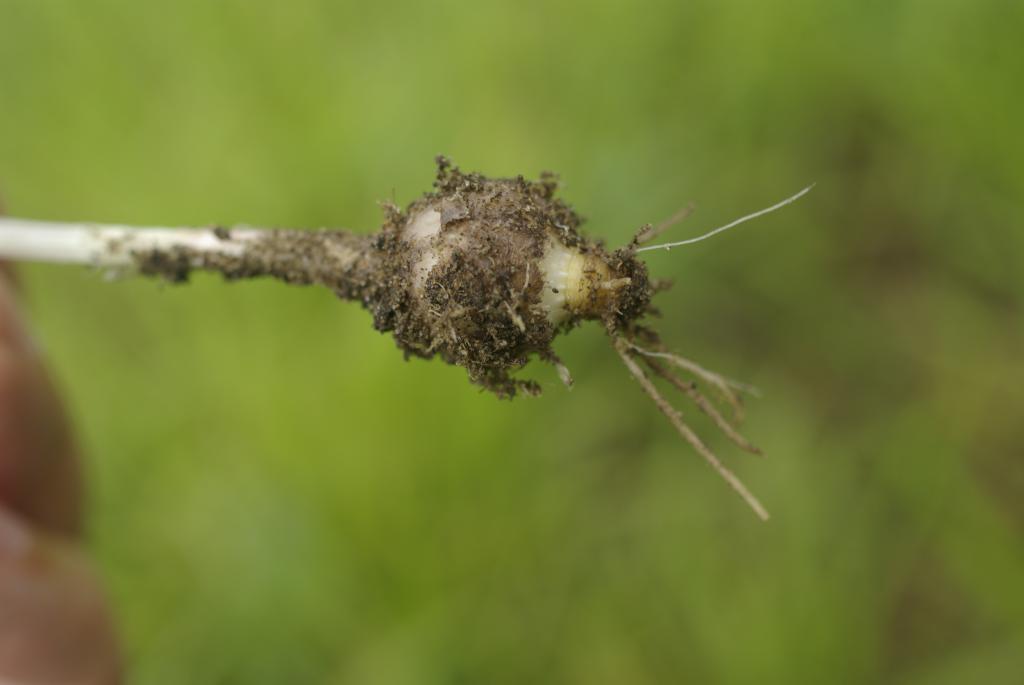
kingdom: Plantae
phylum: Tracheophyta
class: Liliopsida
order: Asparagales
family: Amaryllidaceae
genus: Allium
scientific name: Allium macrostemon
